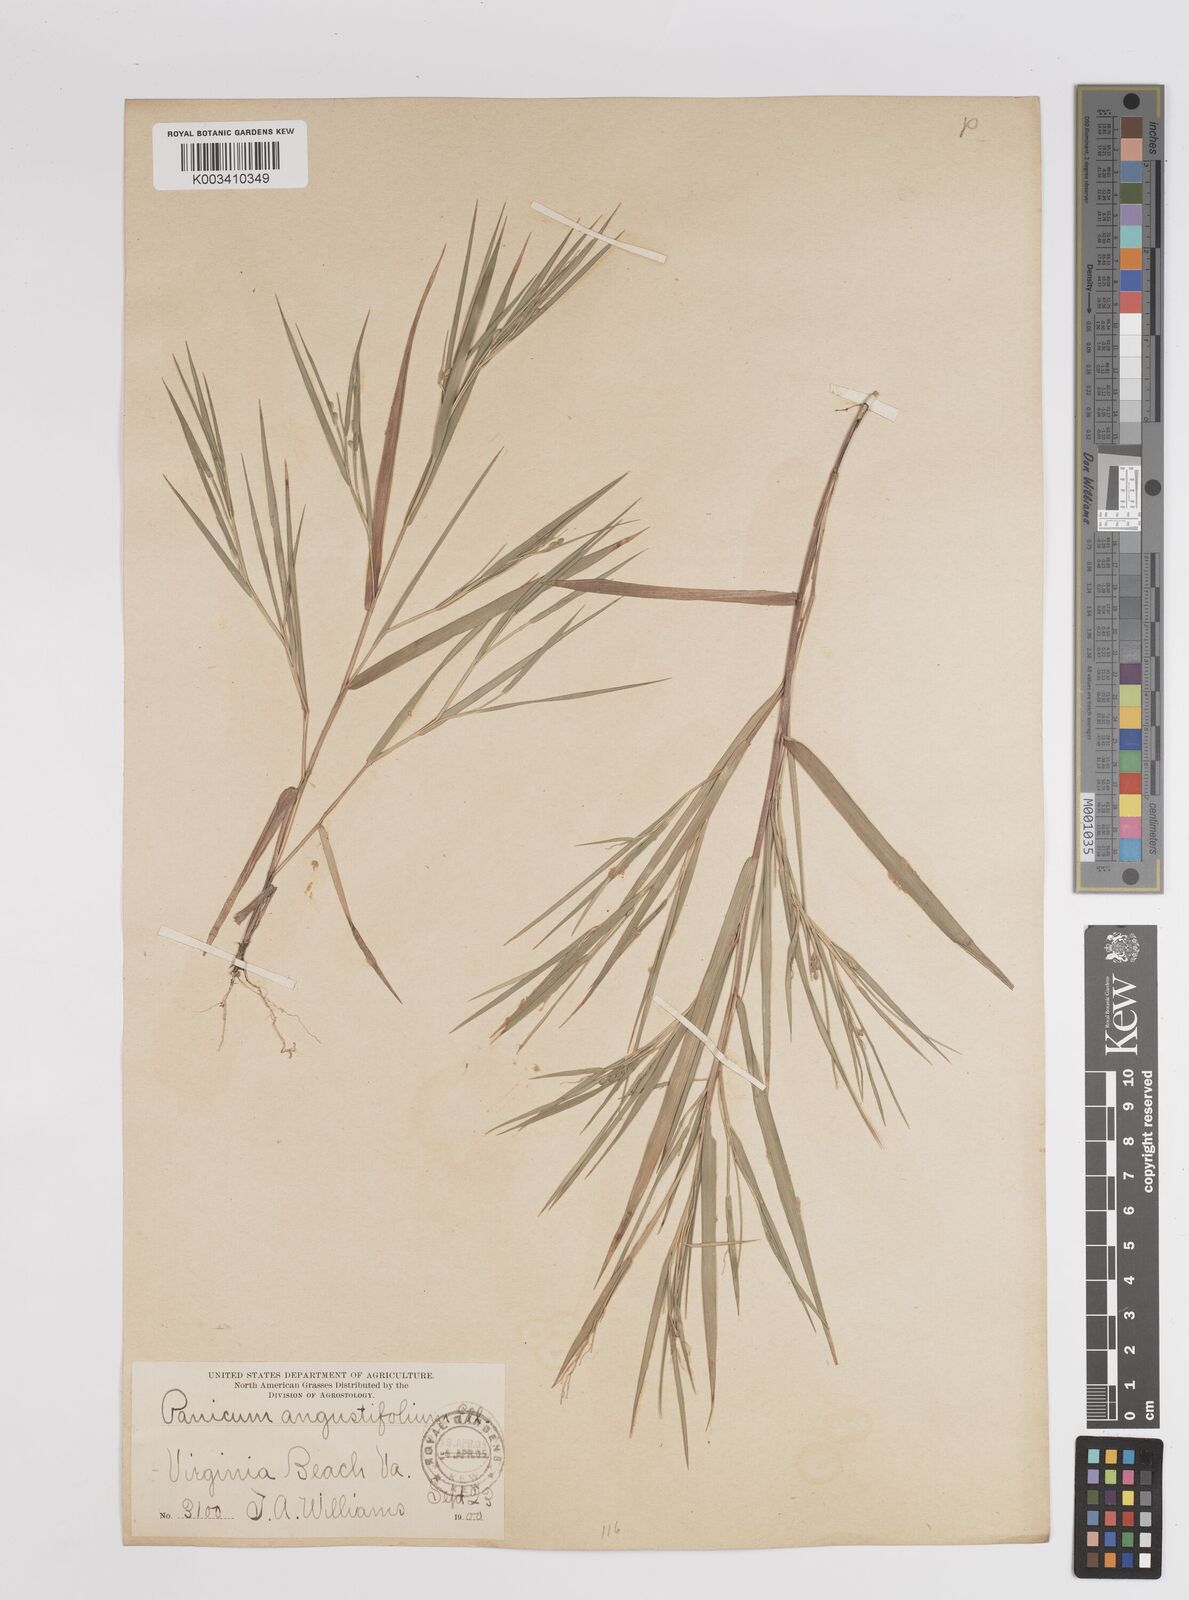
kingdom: Plantae
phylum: Tracheophyta
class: Liliopsida
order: Poales
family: Poaceae
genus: Dichanthelium
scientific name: Dichanthelium angustifolium
